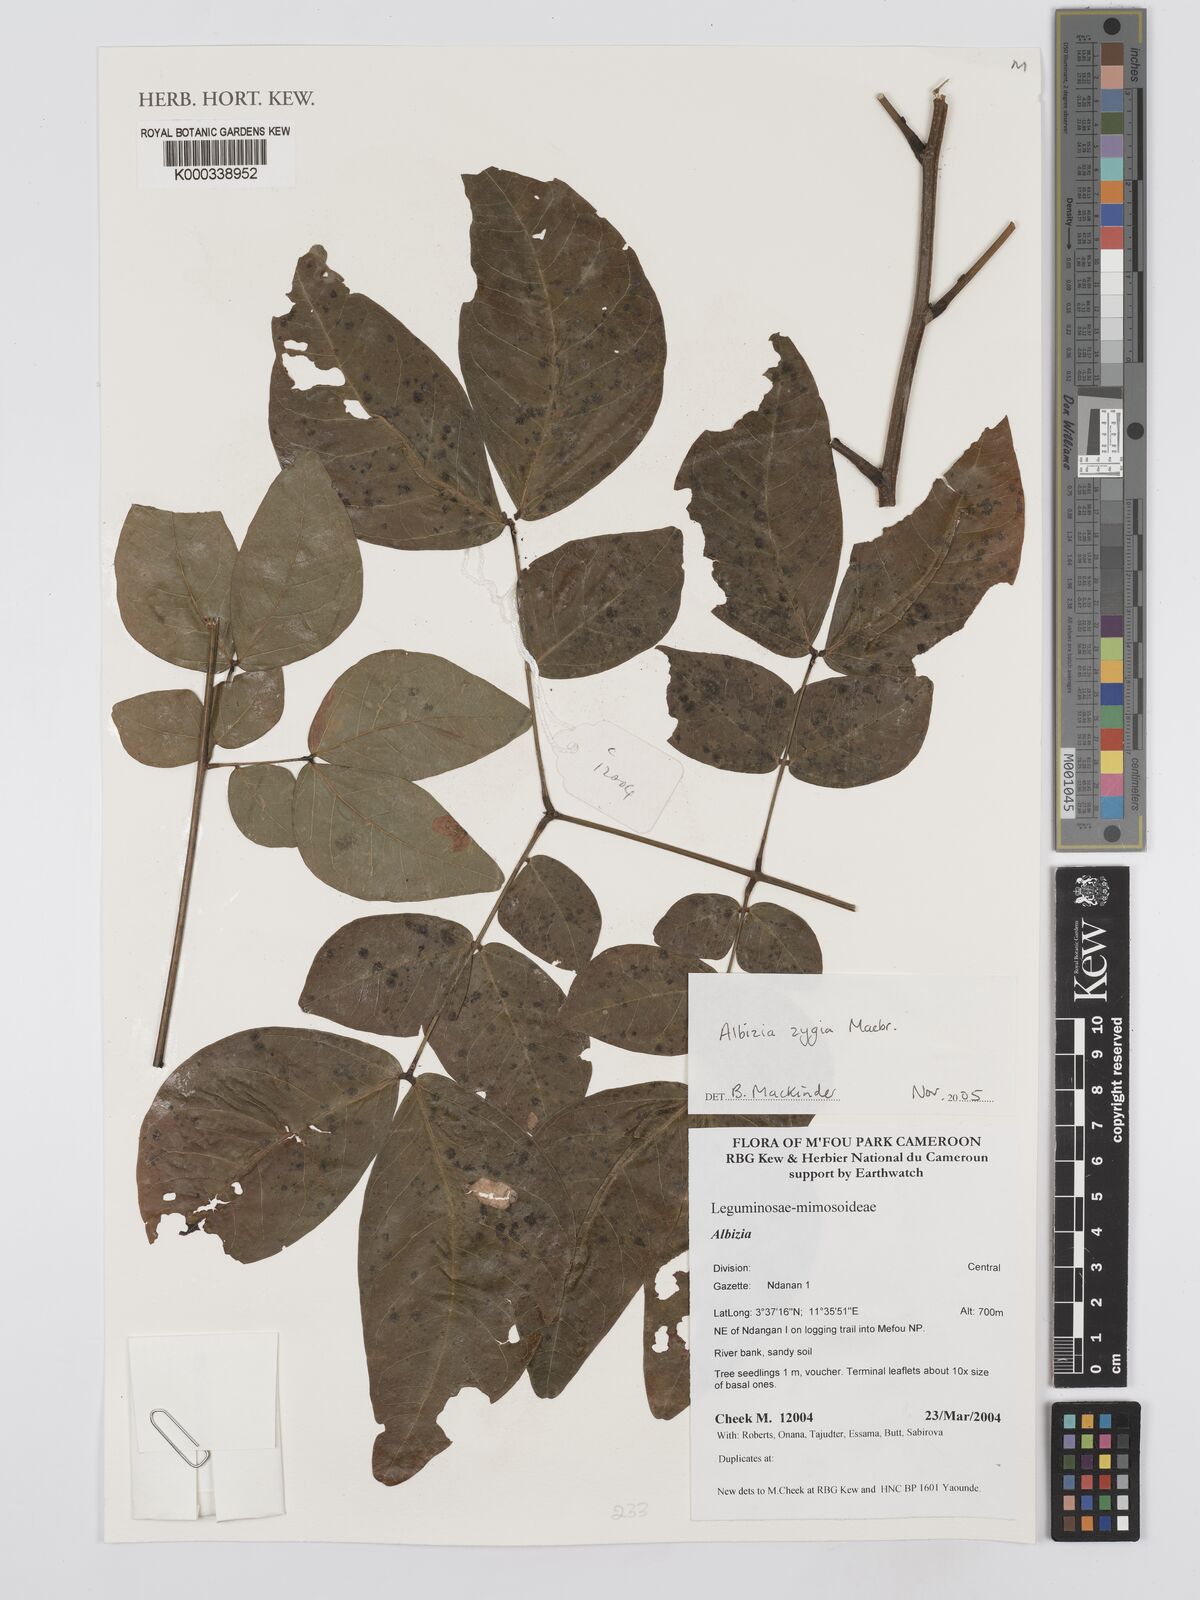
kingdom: Plantae
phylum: Tracheophyta
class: Magnoliopsida
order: Fabales
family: Fabaceae
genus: Albizia
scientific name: Albizia zygia
